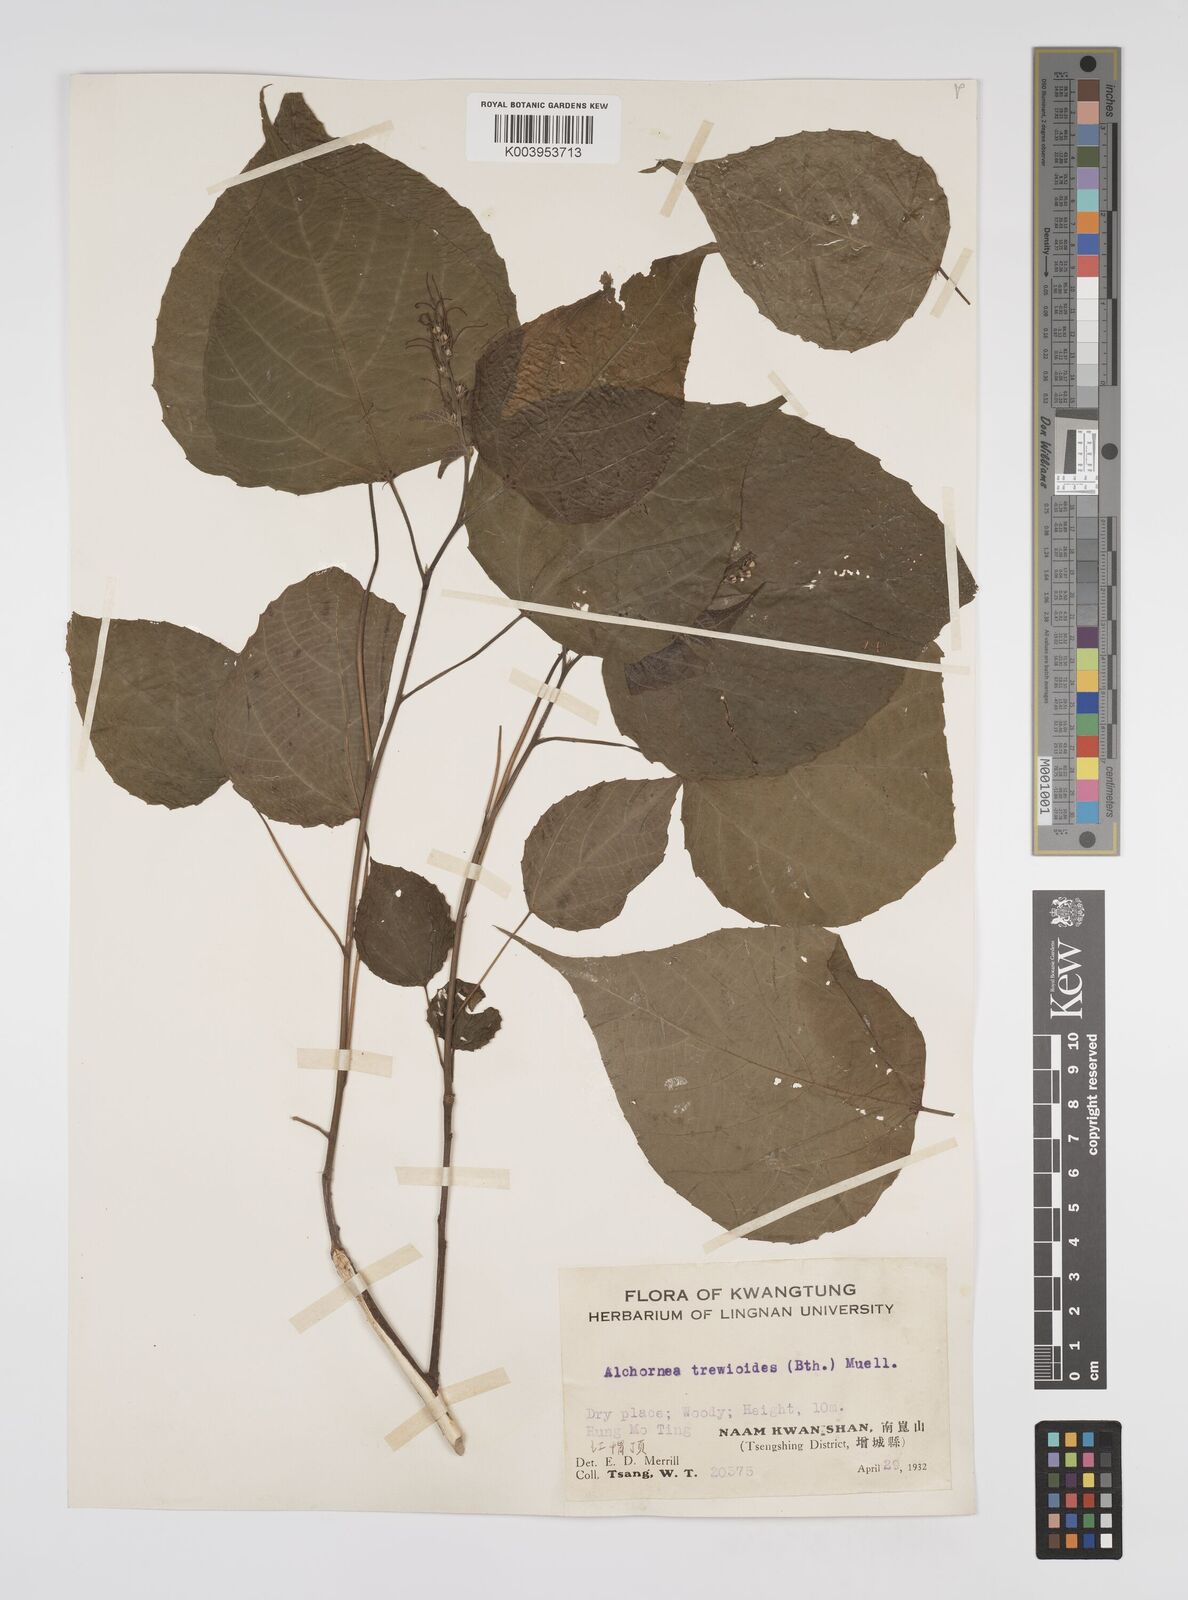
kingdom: Plantae
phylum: Tracheophyta
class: Magnoliopsida
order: Malpighiales
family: Euphorbiaceae
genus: Alchornea
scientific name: Alchornea trewioides
